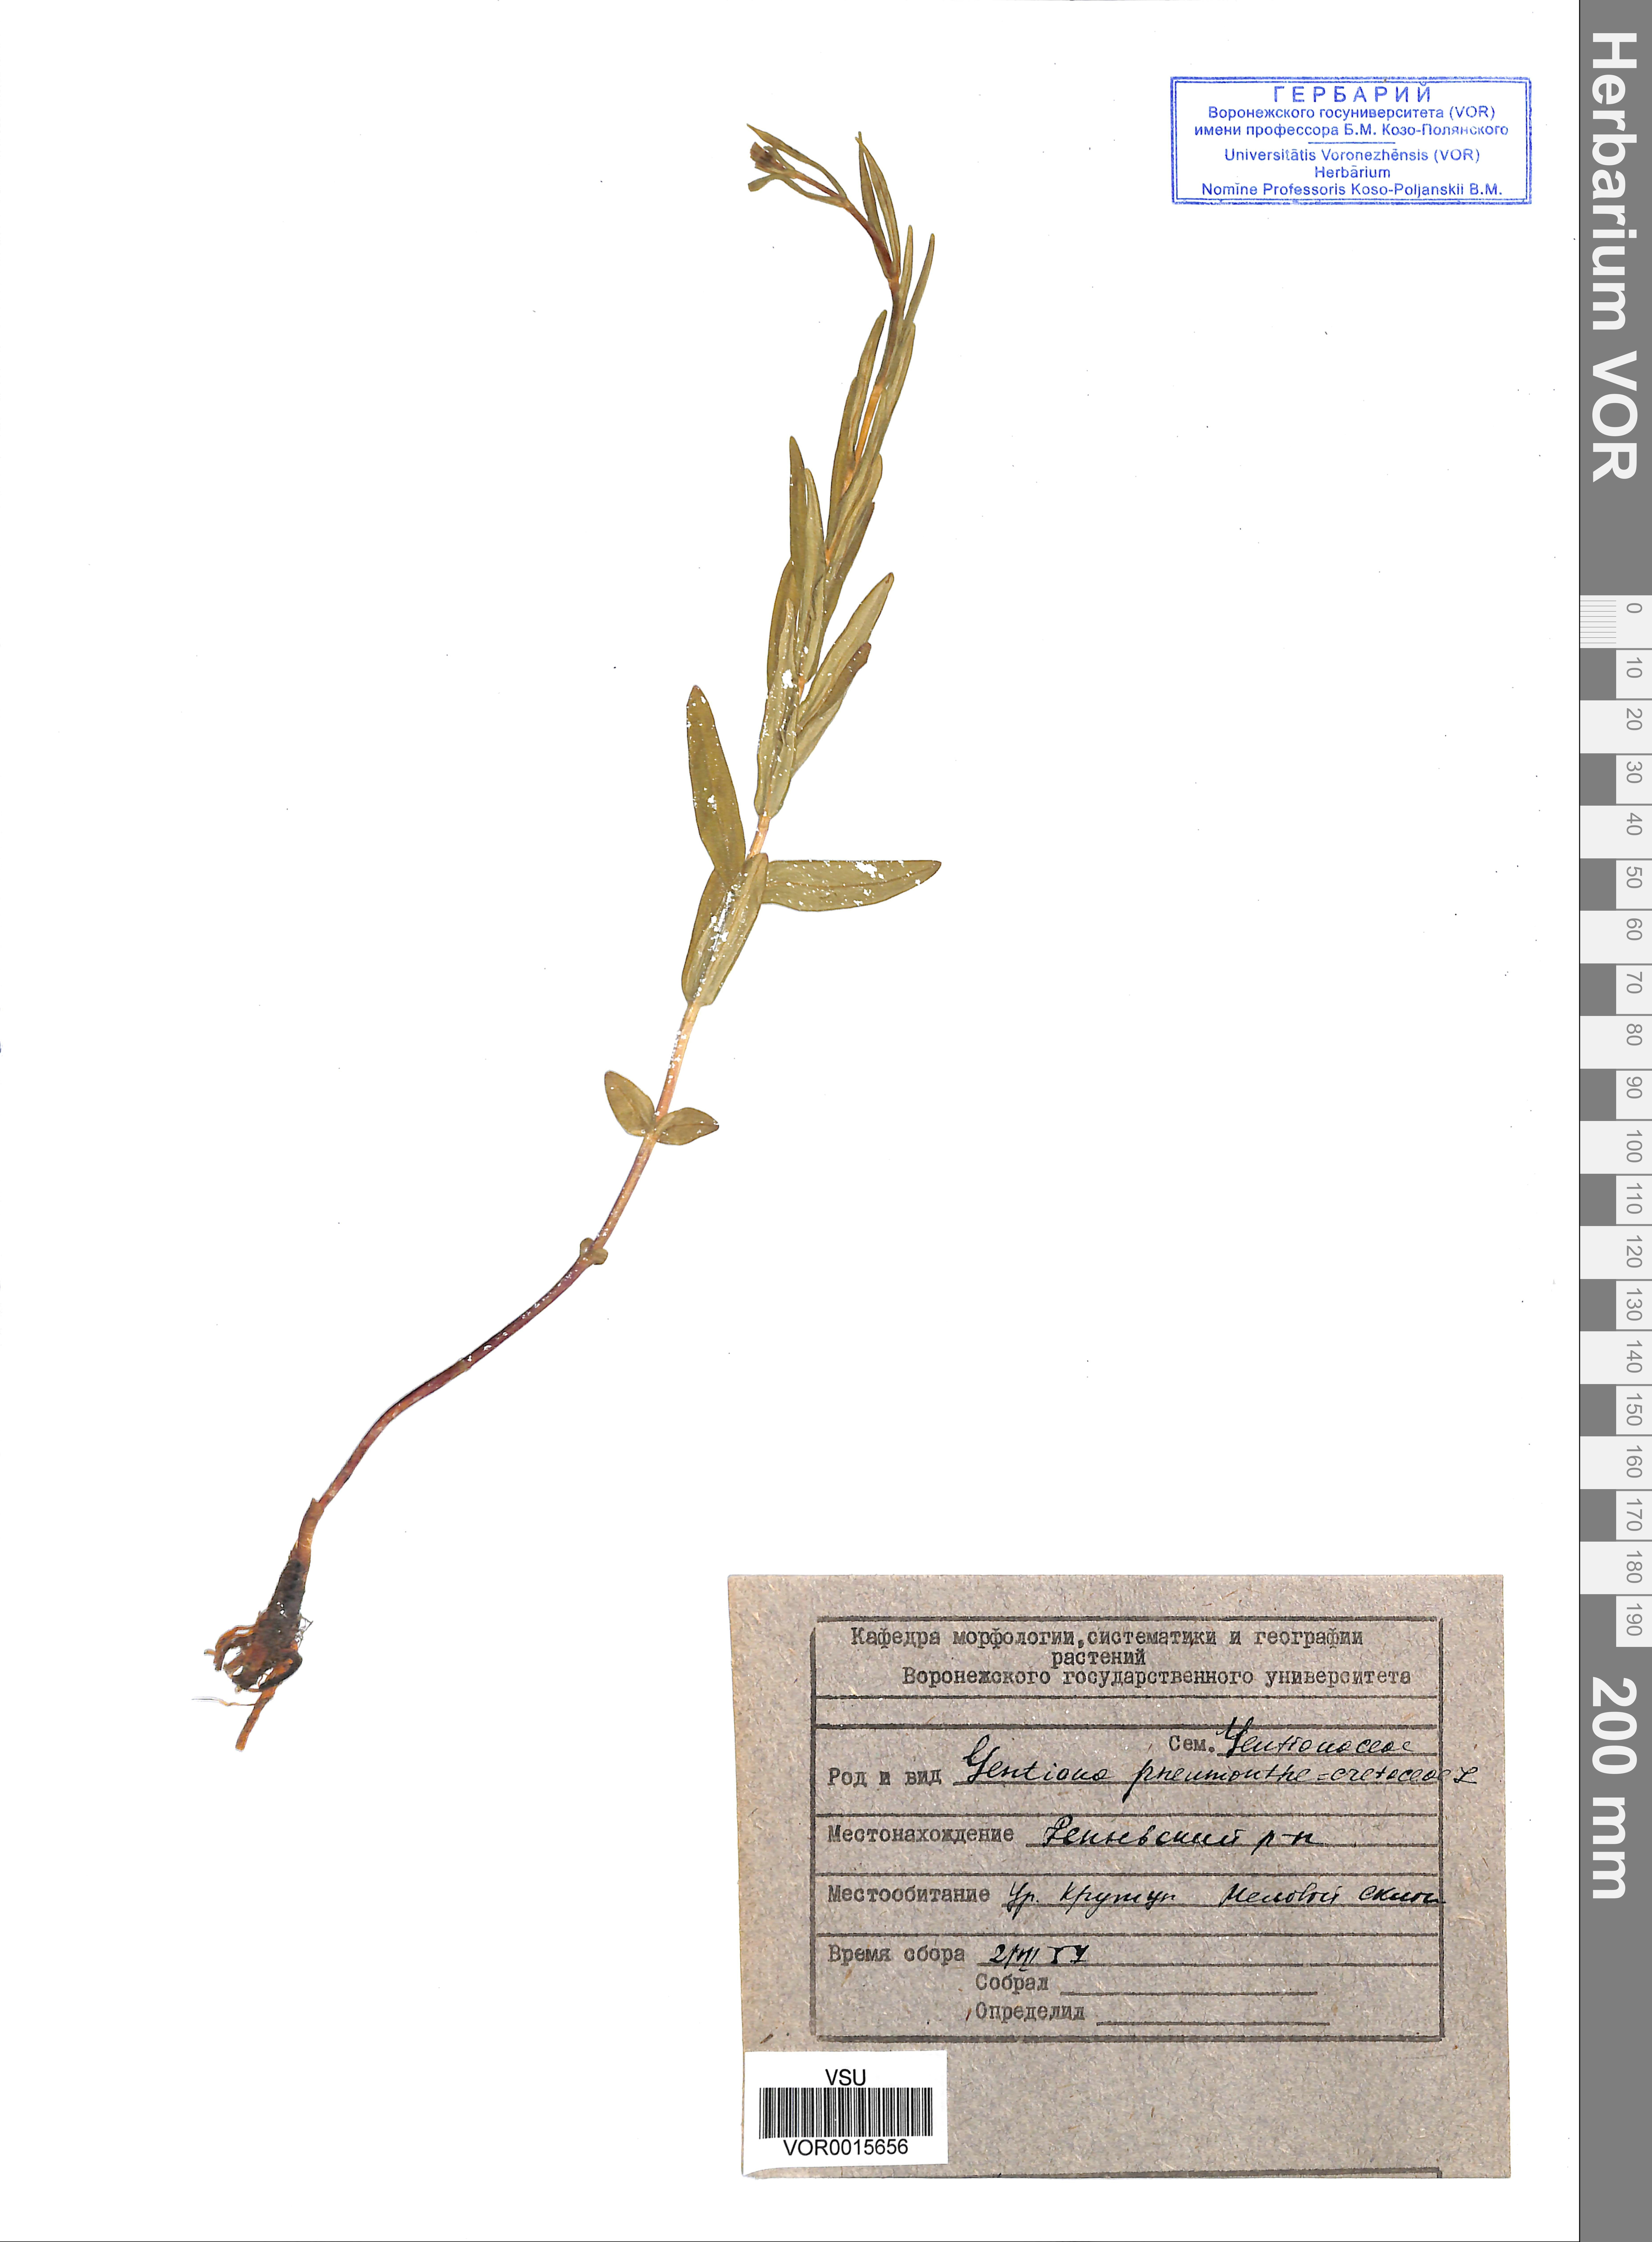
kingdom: Plantae
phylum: Tracheophyta
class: Magnoliopsida
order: Gentianales
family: Gentianaceae
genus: Gentiana
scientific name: Gentiana pneumonanthe
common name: Marsh gentian
